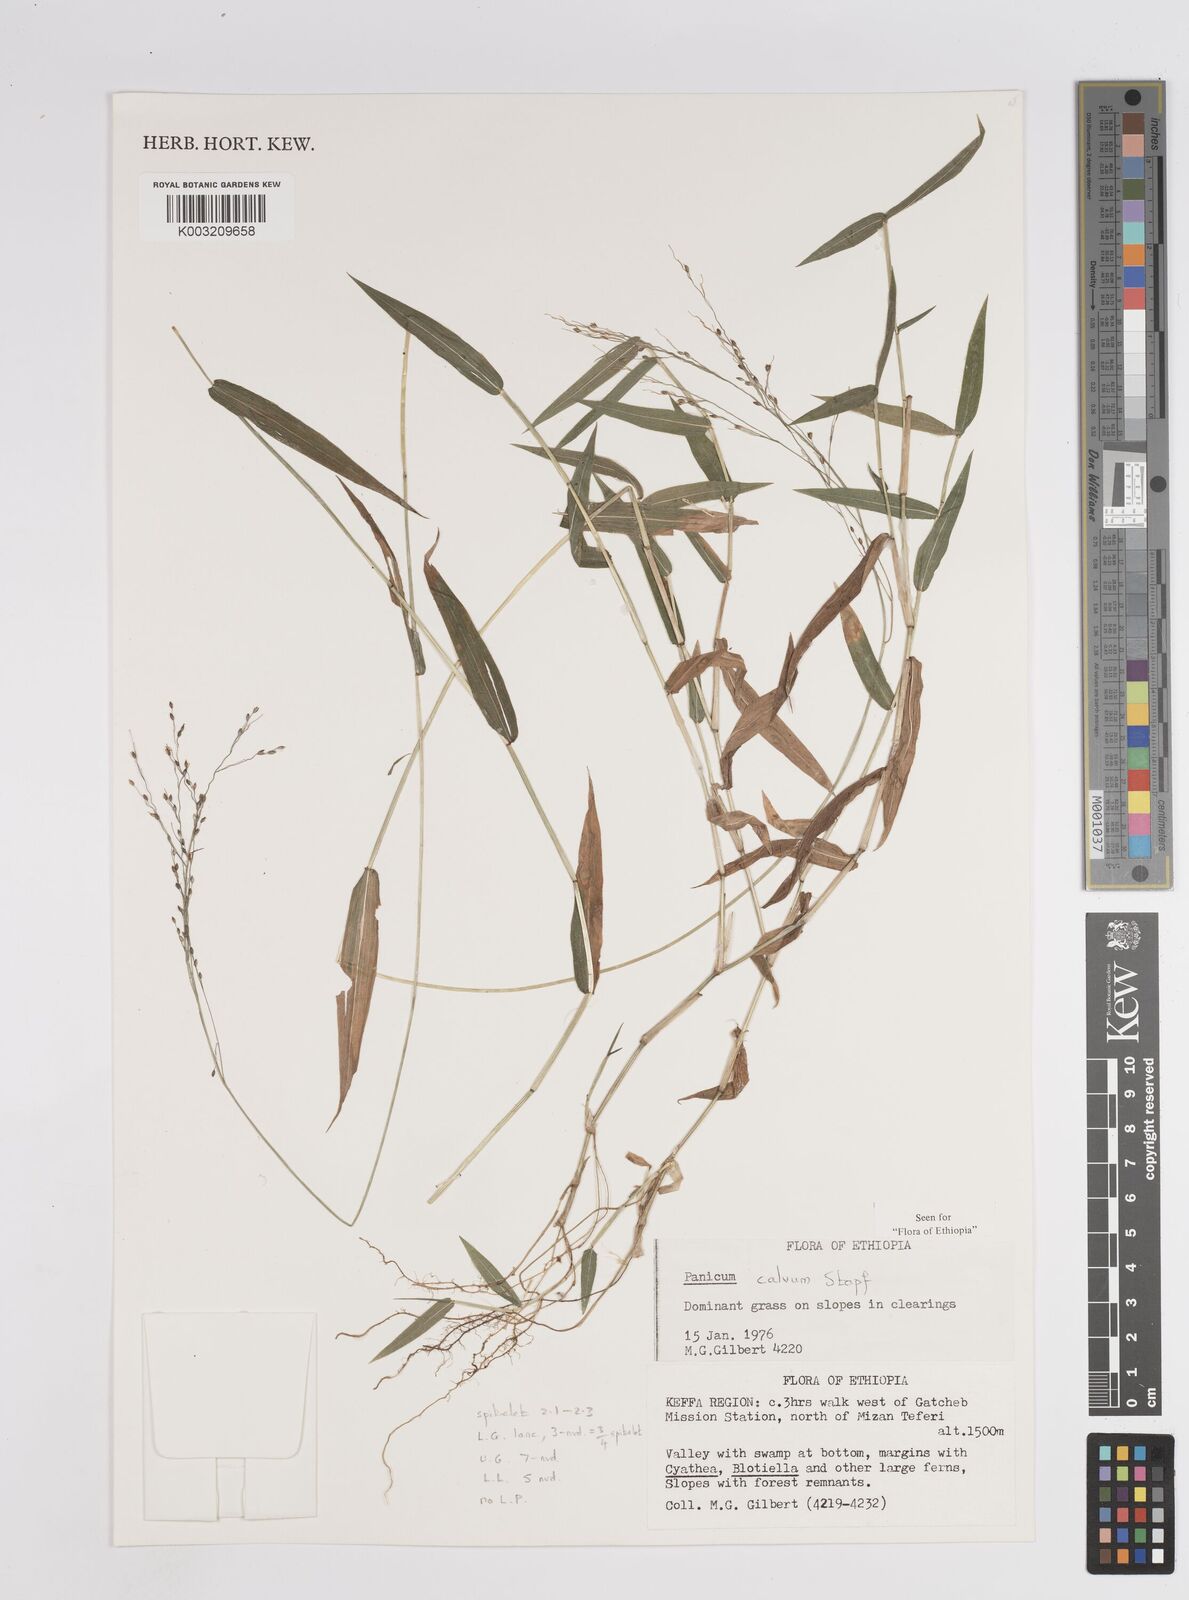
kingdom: Plantae
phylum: Tracheophyta
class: Liliopsida
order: Poales
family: Poaceae
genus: Panicum
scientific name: Panicum calvum
